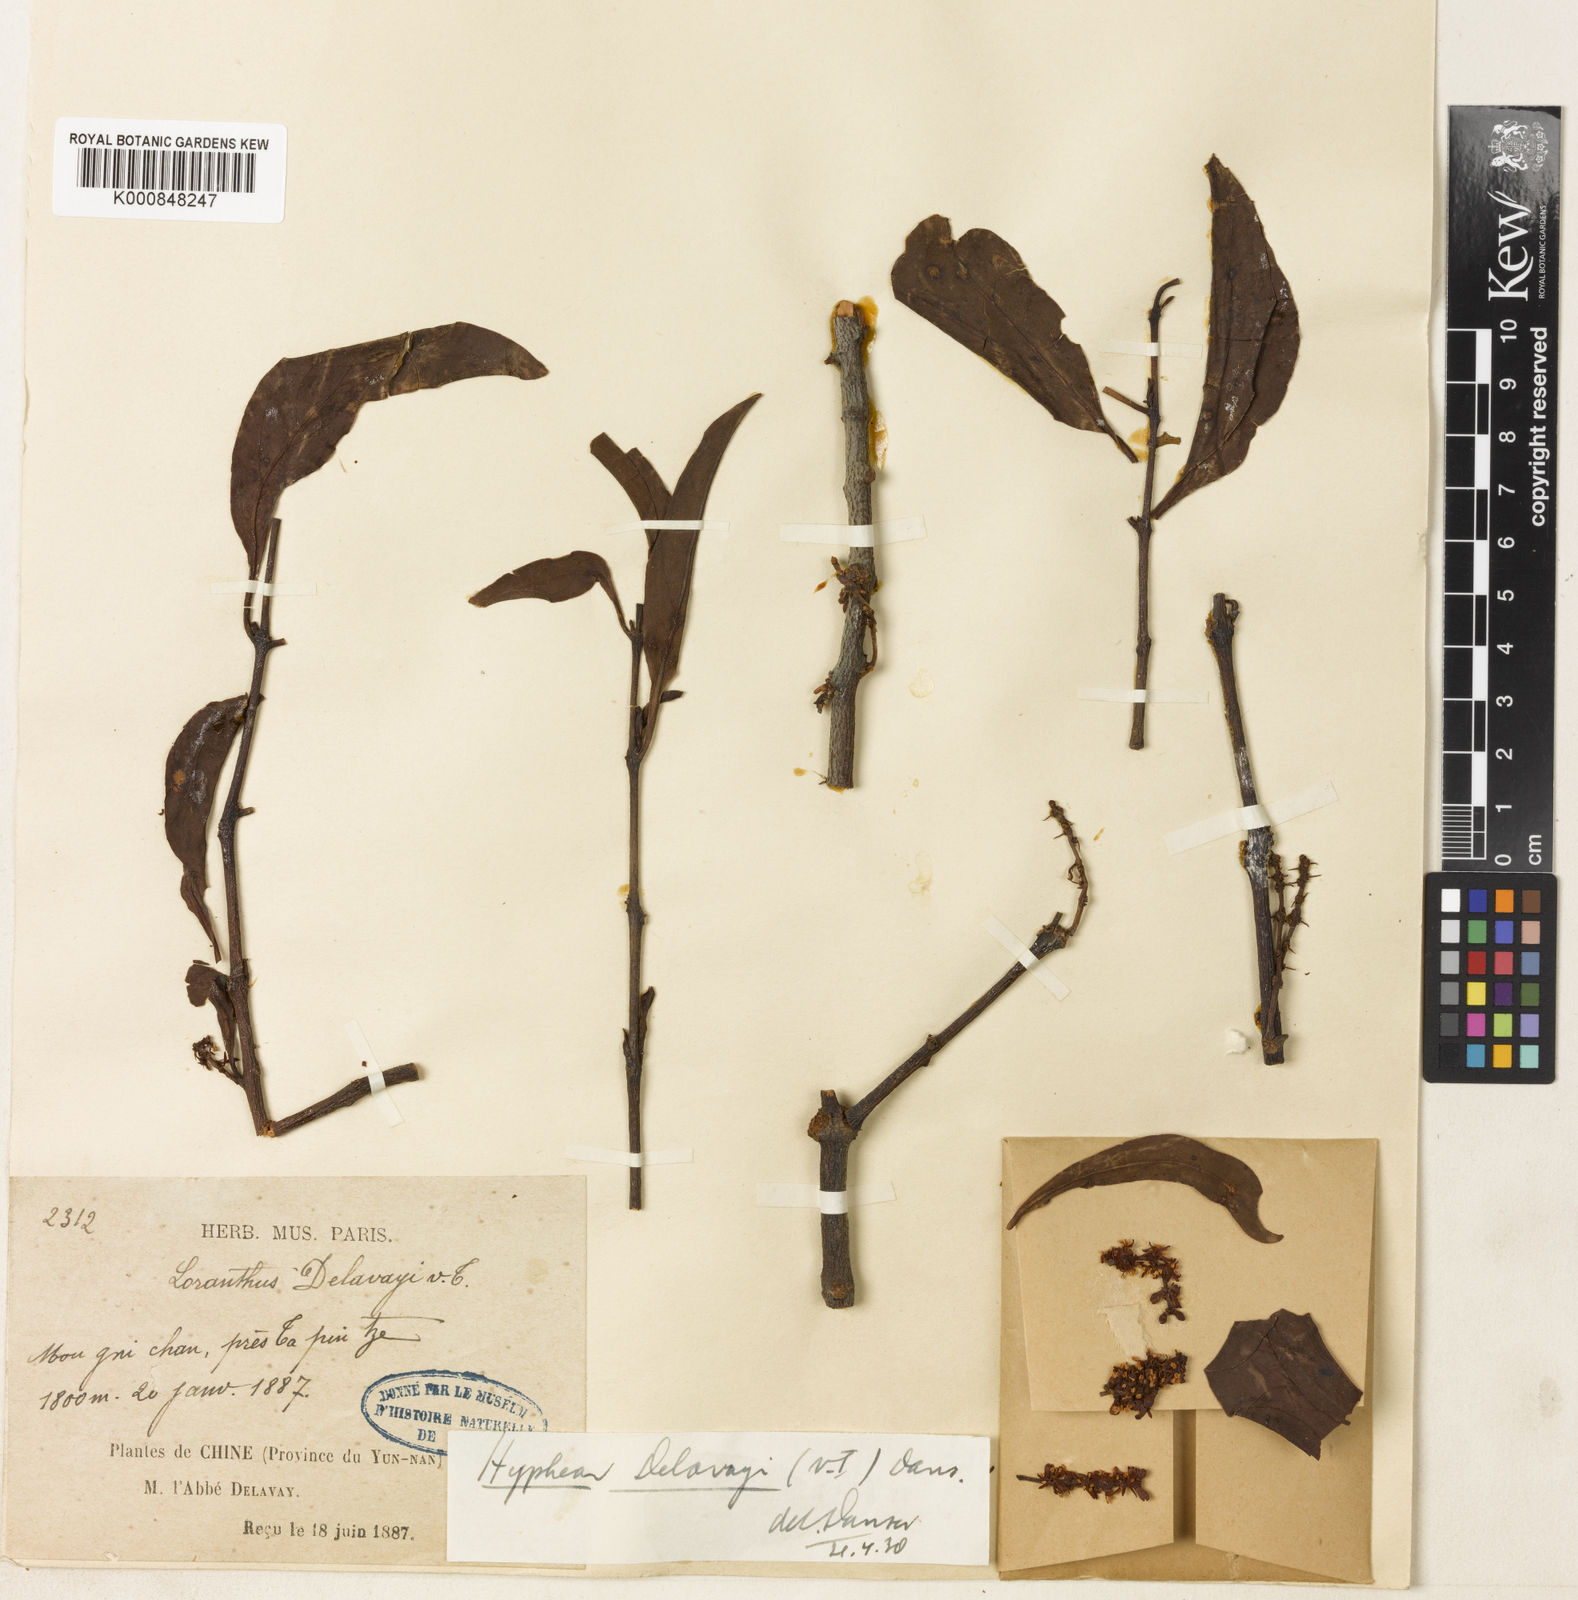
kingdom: Plantae
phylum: Tracheophyta
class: Magnoliopsida
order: Santalales
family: Loranthaceae
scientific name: Loranthaceae
